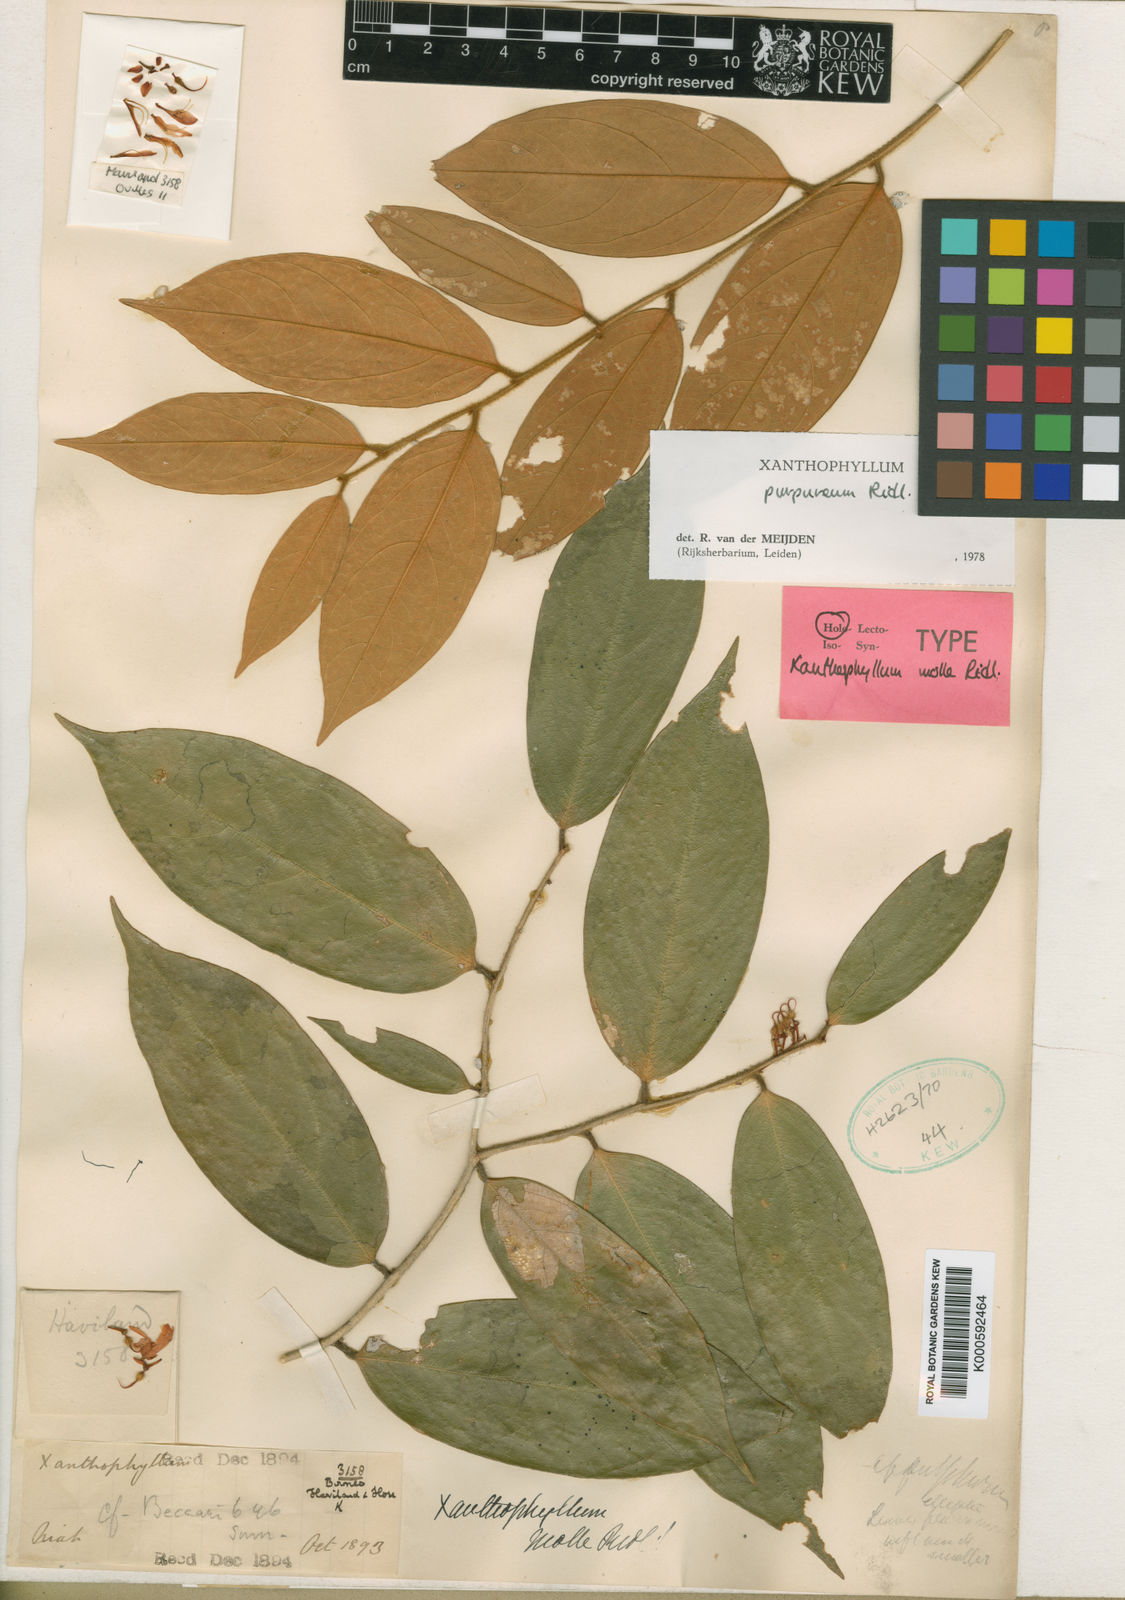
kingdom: Plantae
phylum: Tracheophyta
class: Magnoliopsida
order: Fabales
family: Polygalaceae
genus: Xanthophyllum
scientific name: Xanthophyllum purpureum
